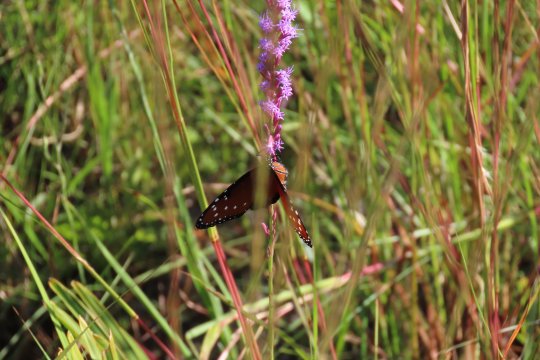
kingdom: Animalia
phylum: Arthropoda
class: Insecta
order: Lepidoptera
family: Nymphalidae
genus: Danaus
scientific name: Danaus gilippus
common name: Queen
